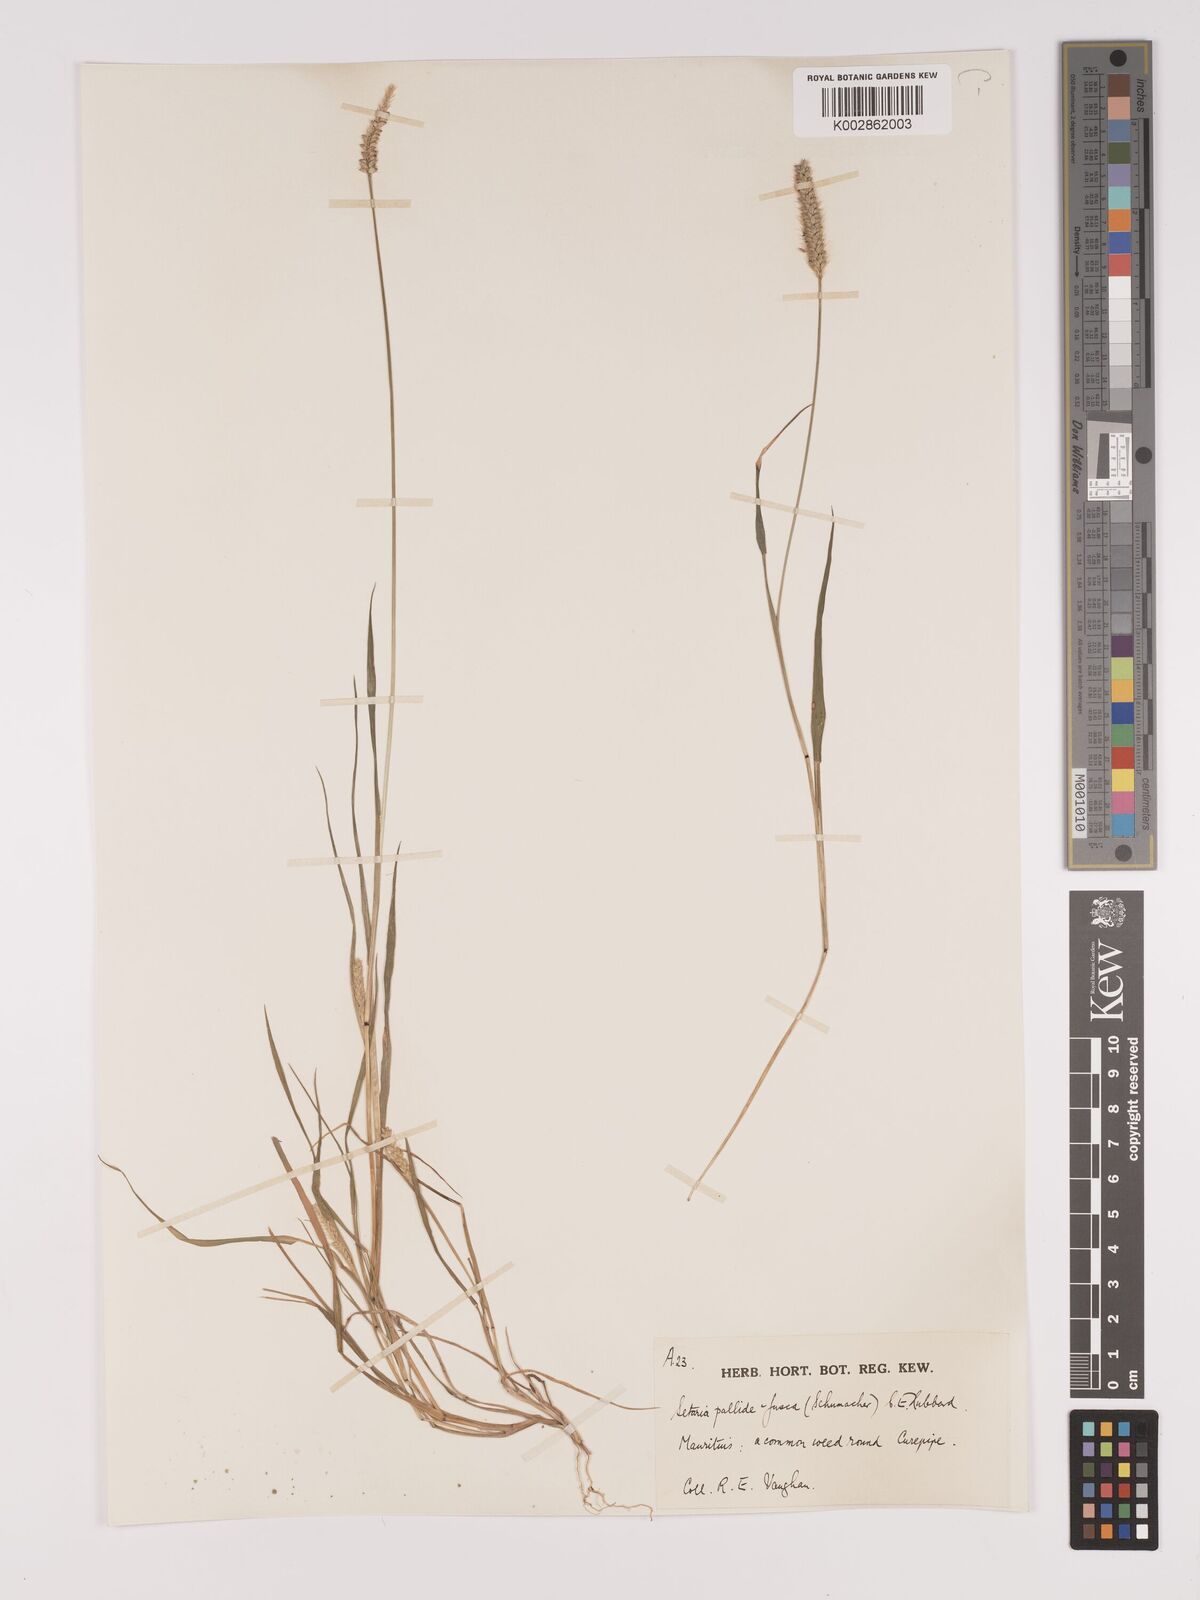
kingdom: Plantae
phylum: Tracheophyta
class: Liliopsida
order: Poales
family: Poaceae
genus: Setaria
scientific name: Setaria pumila
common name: Yellow bristle-grass
